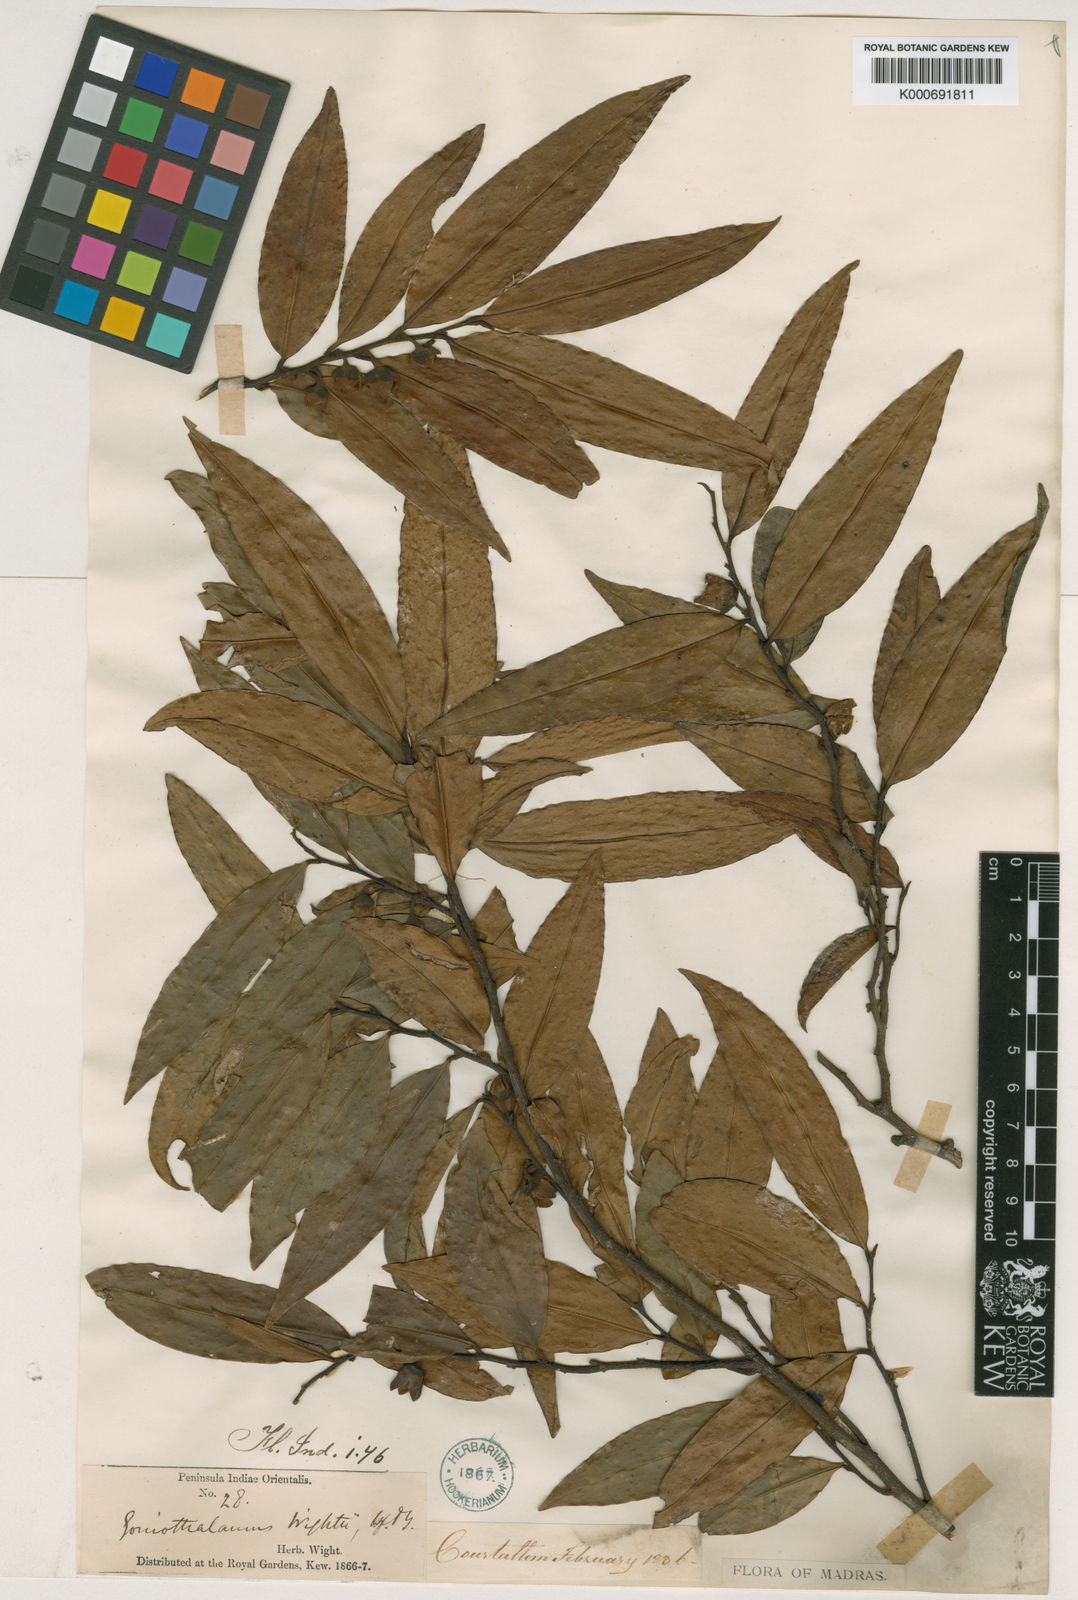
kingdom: Plantae
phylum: Tracheophyta
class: Magnoliopsida
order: Magnoliales
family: Annonaceae
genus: Goniothalamus
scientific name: Goniothalamus wightii
